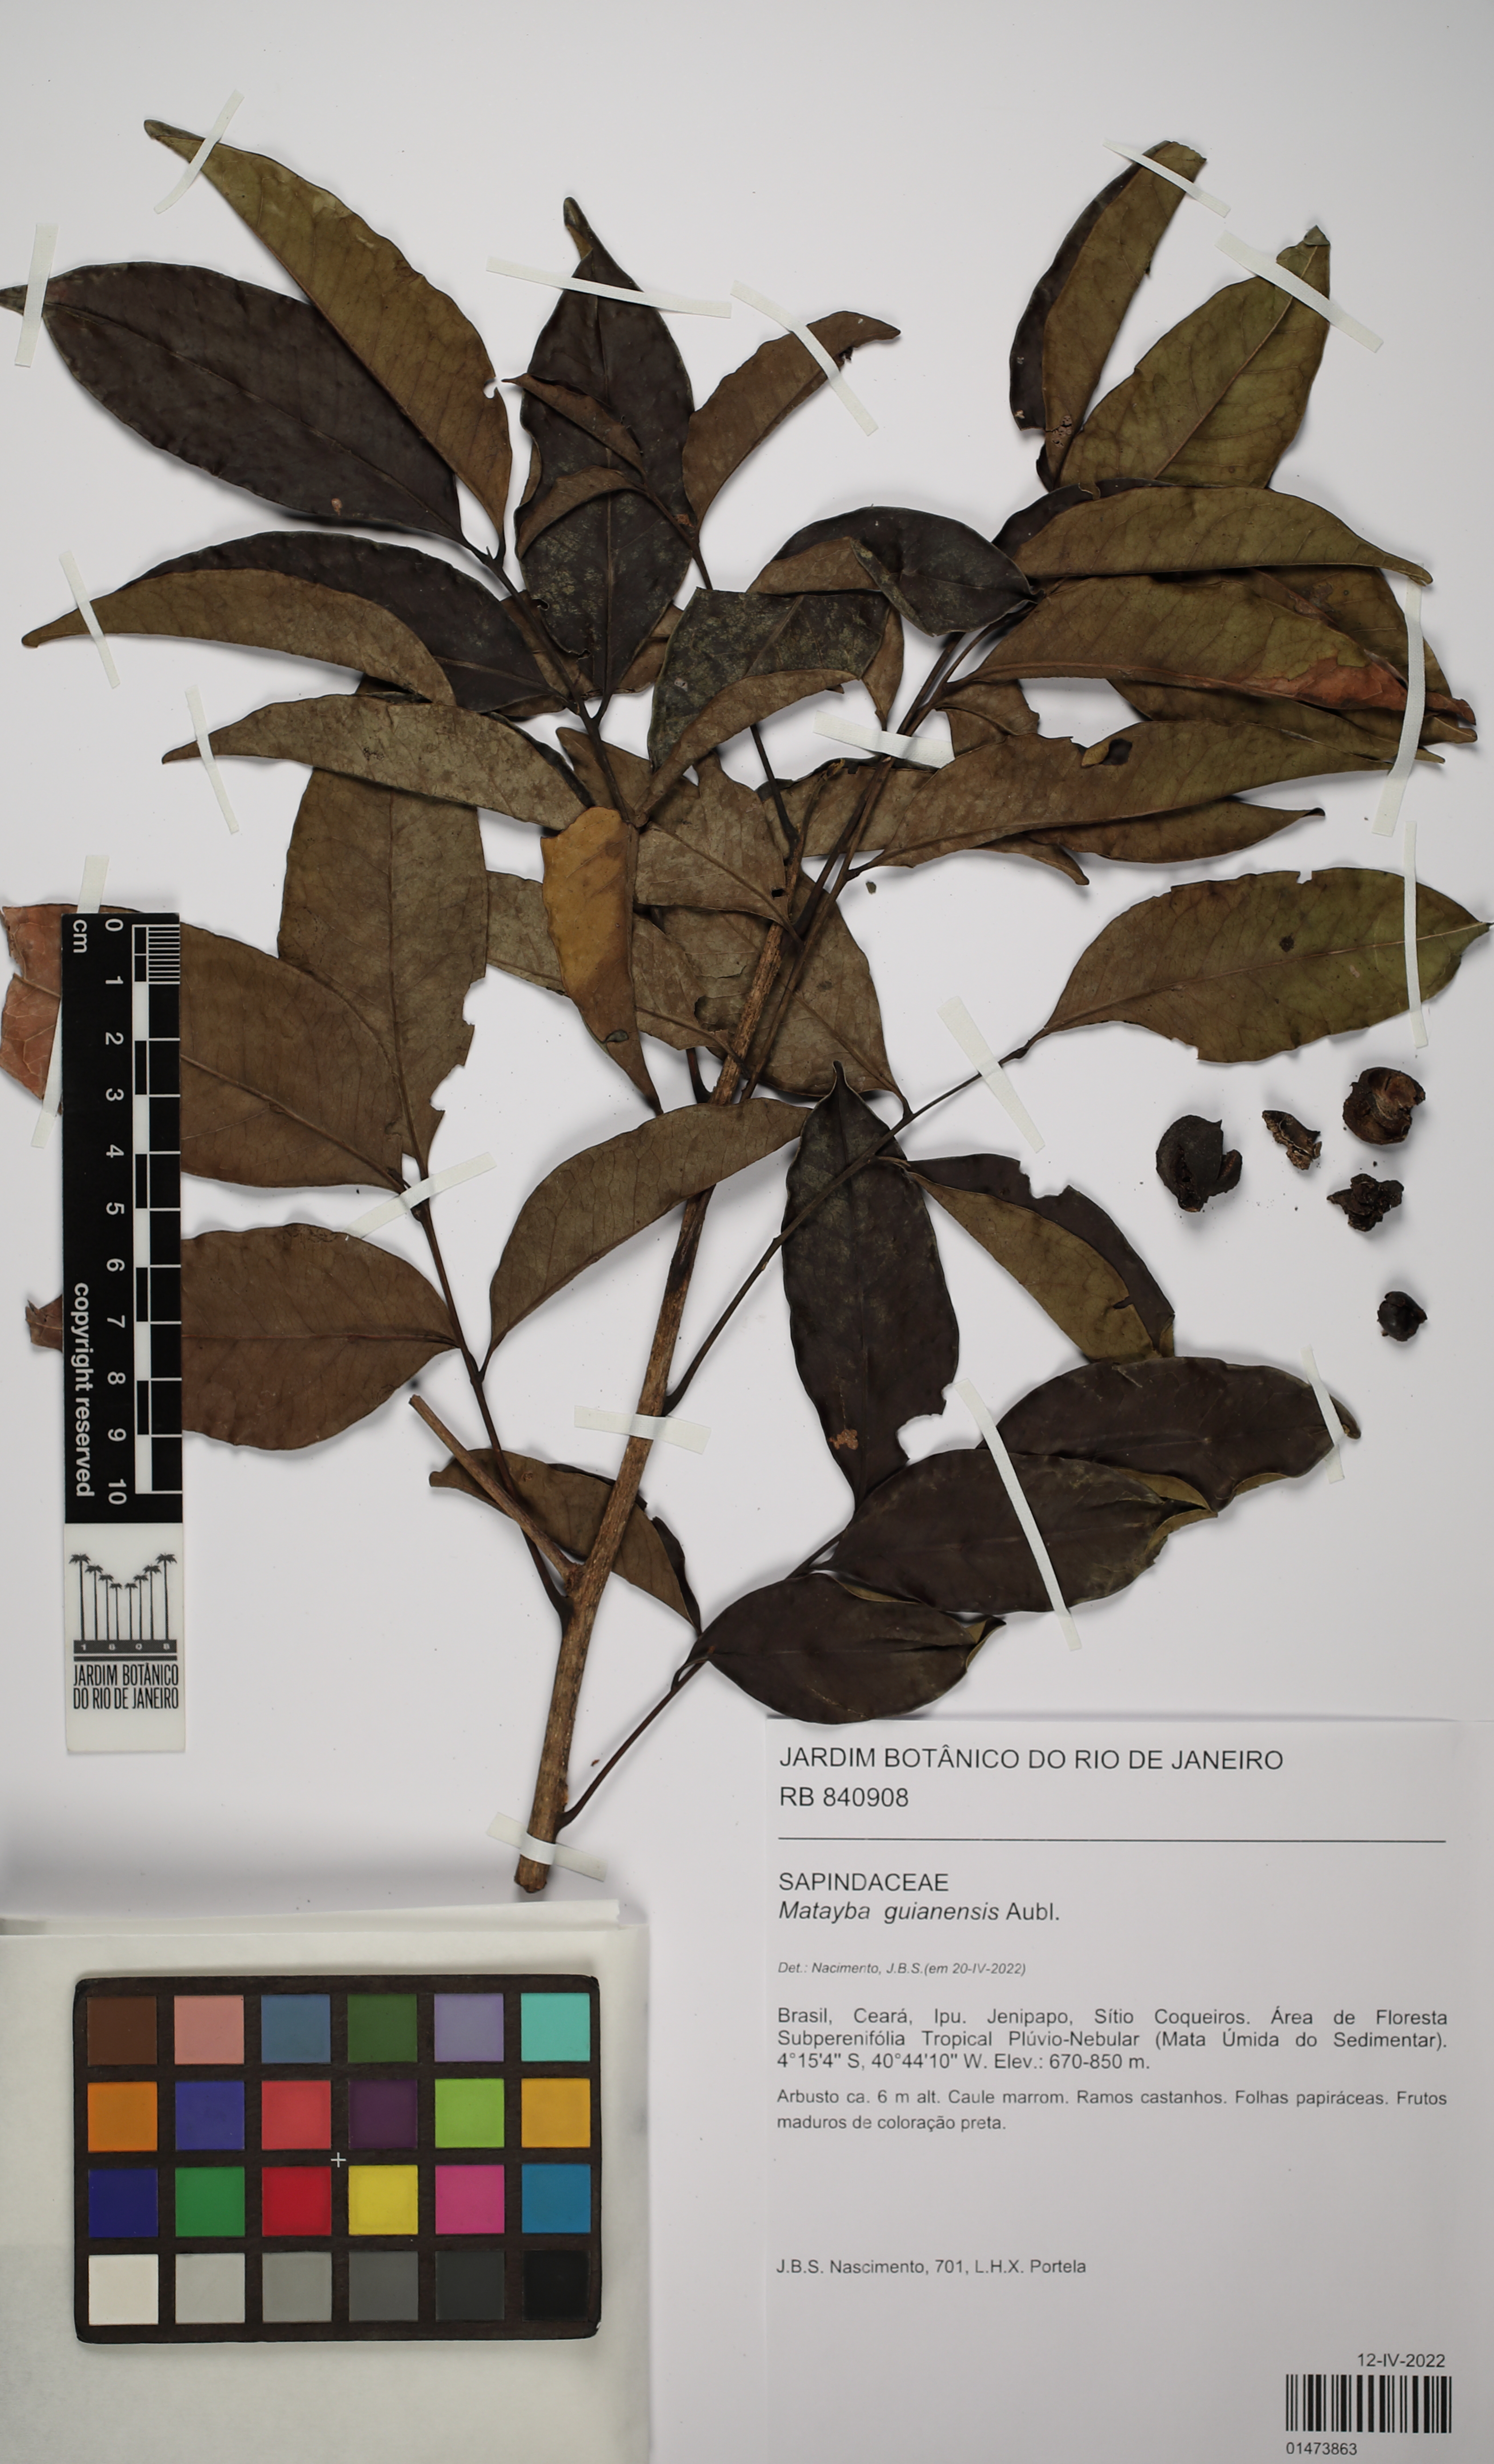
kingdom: Plantae
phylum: Tracheophyta
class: Magnoliopsida
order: Sapindales
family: Sapindaceae
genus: Matayba
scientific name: Matayba guianensis
